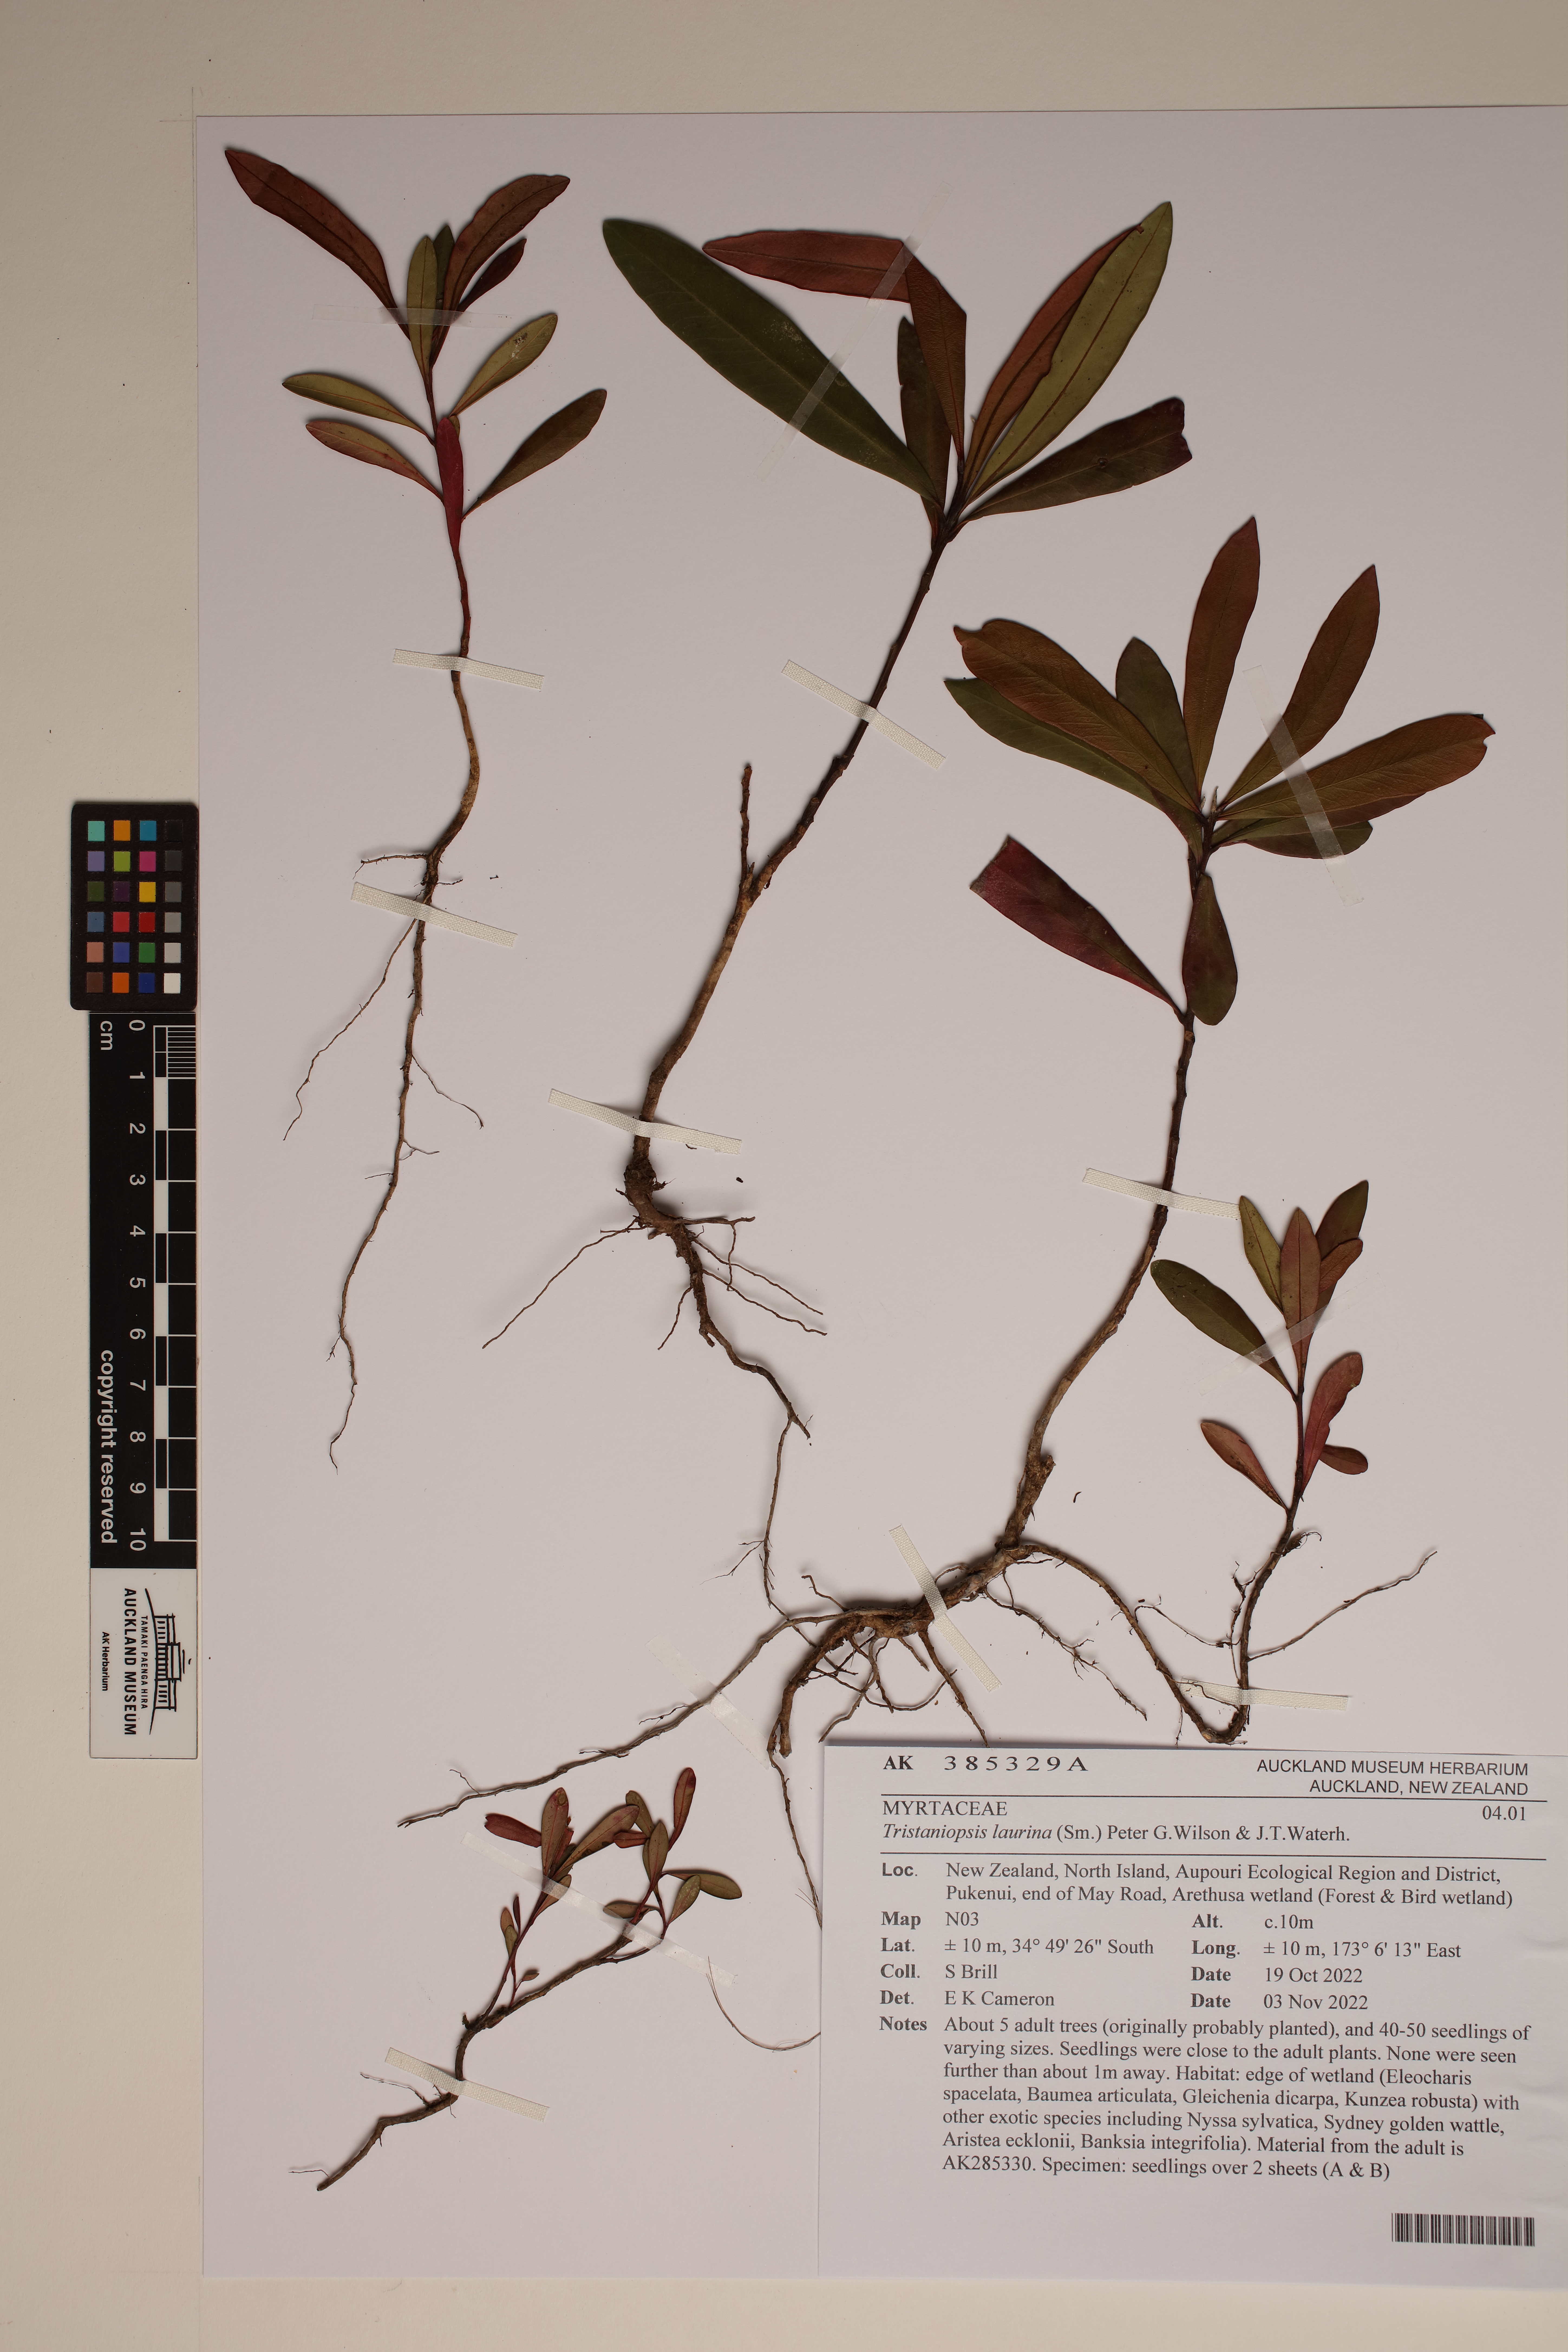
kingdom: Plantae
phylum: Tracheophyta
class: Magnoliopsida
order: Myrtales
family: Myrtaceae
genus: Tristaniopsis
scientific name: Tristaniopsis laurina
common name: Water-gum
